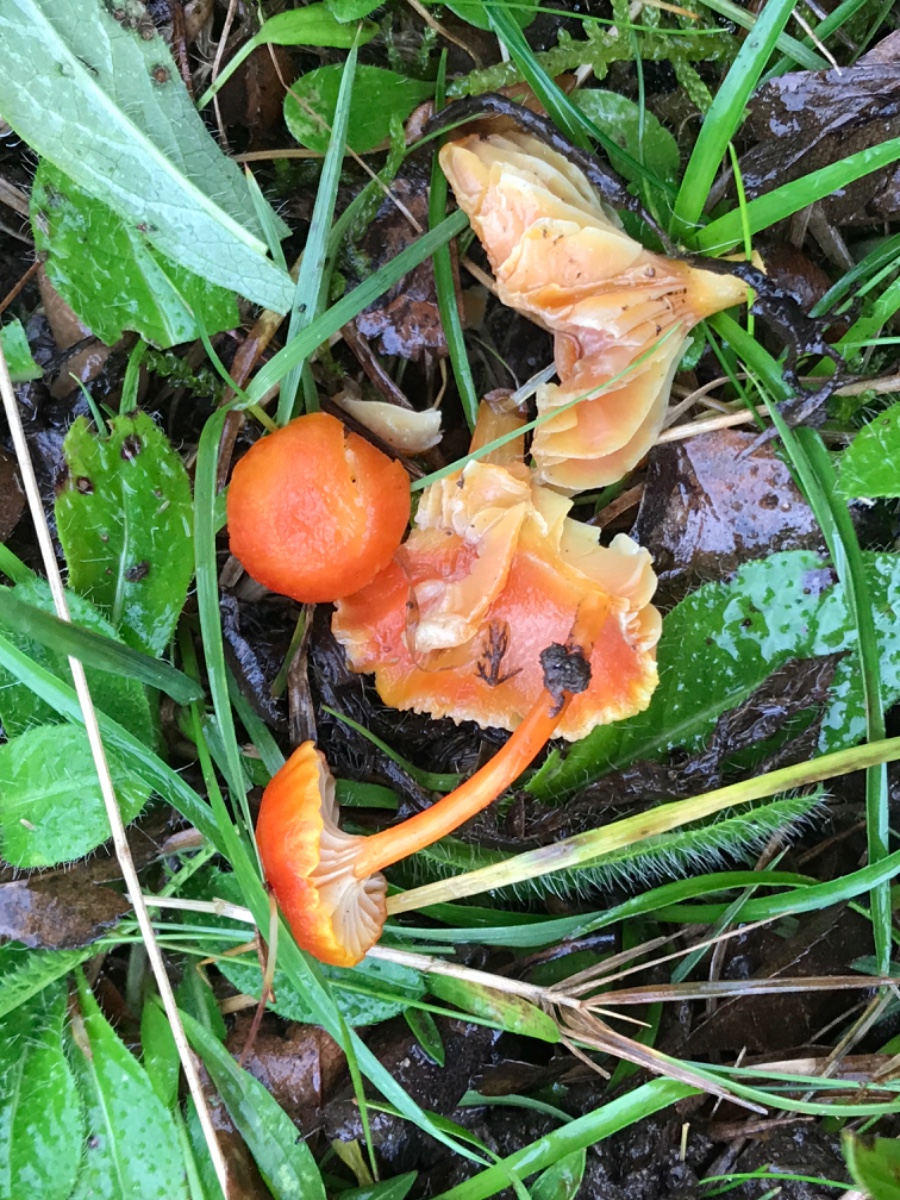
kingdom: Fungi
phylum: Basidiomycota
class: Agaricomycetes
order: Agaricales
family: Hygrophoraceae
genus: Hygrocybe
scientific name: Hygrocybe cantharellus
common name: kantarel-vokshat
